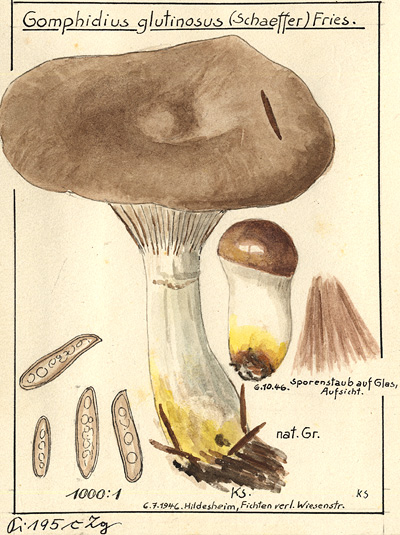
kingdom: Fungi
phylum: Basidiomycota
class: Agaricomycetes
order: Boletales
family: Gomphidiaceae
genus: Gomphidius
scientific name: Gomphidius glutinosus
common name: Slimy spike
